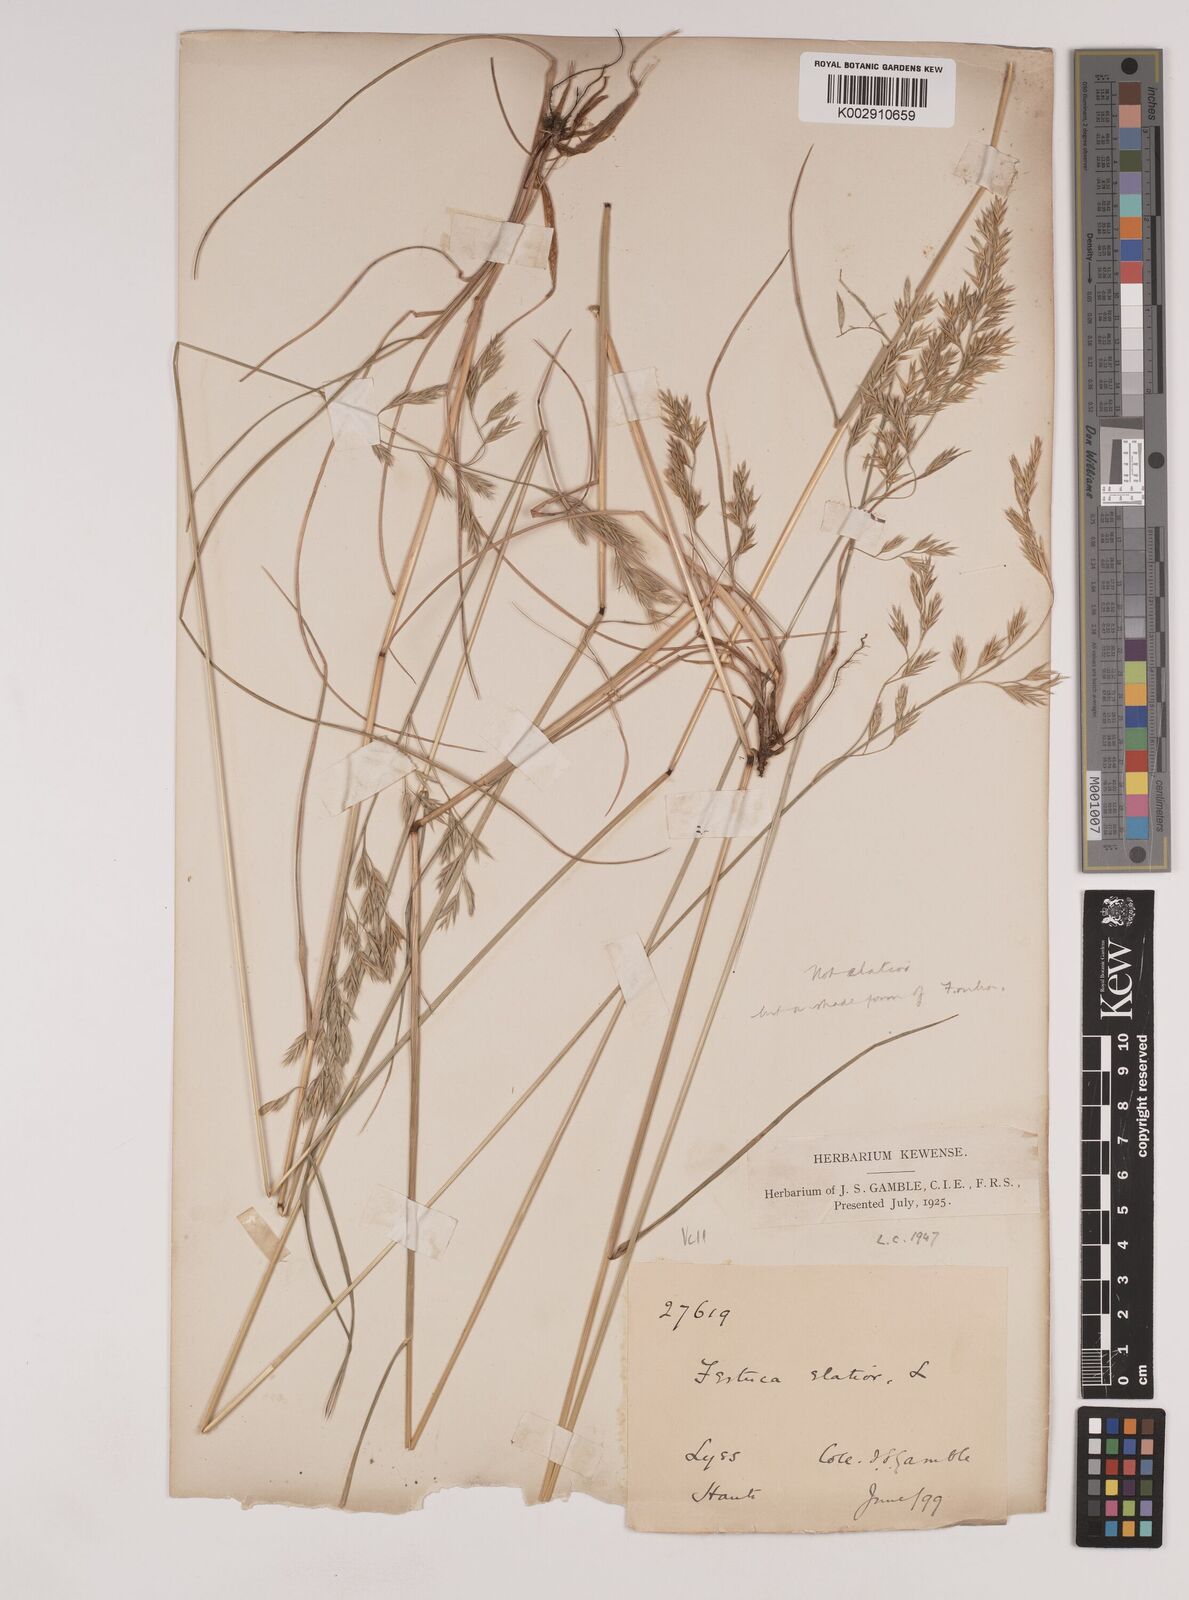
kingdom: Plantae
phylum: Tracheophyta
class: Liliopsida
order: Poales
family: Poaceae
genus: Festuca
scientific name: Festuca rubra
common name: Red fescue
